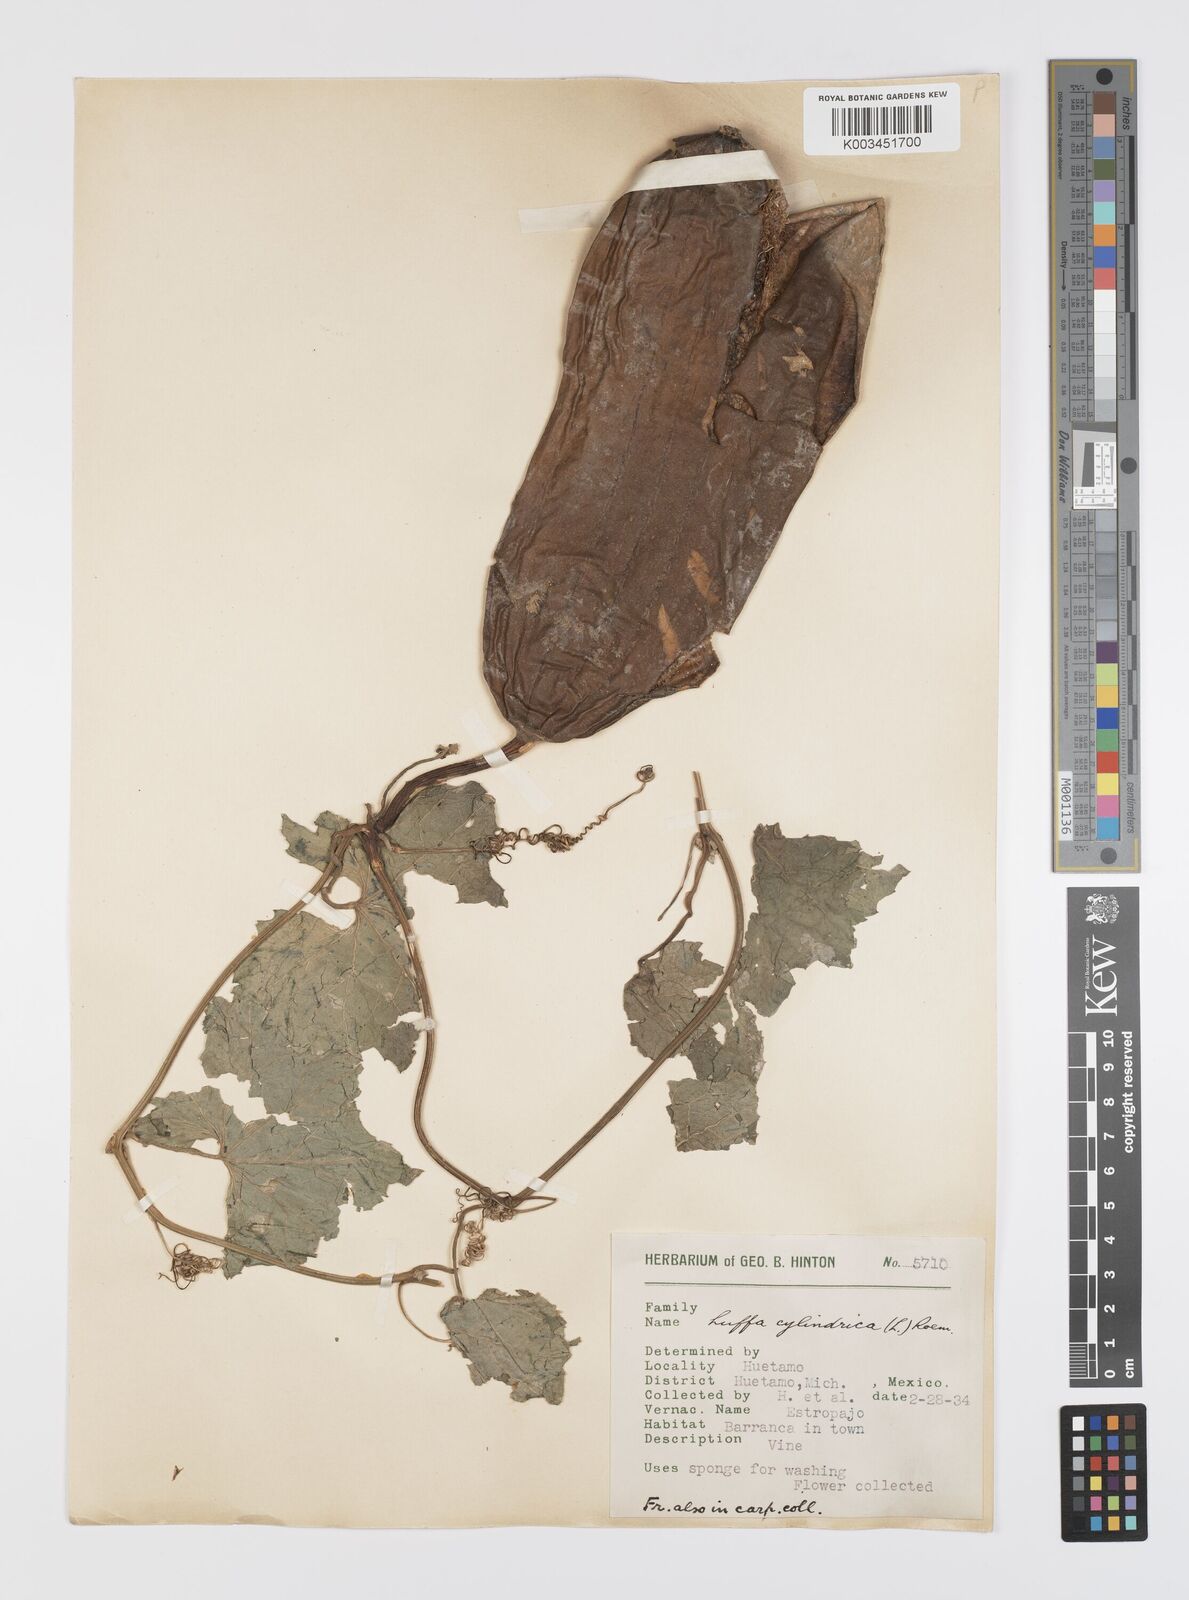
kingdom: Plantae
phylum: Tracheophyta
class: Magnoliopsida
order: Cucurbitales
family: Cucurbitaceae
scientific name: Cucurbitaceae
